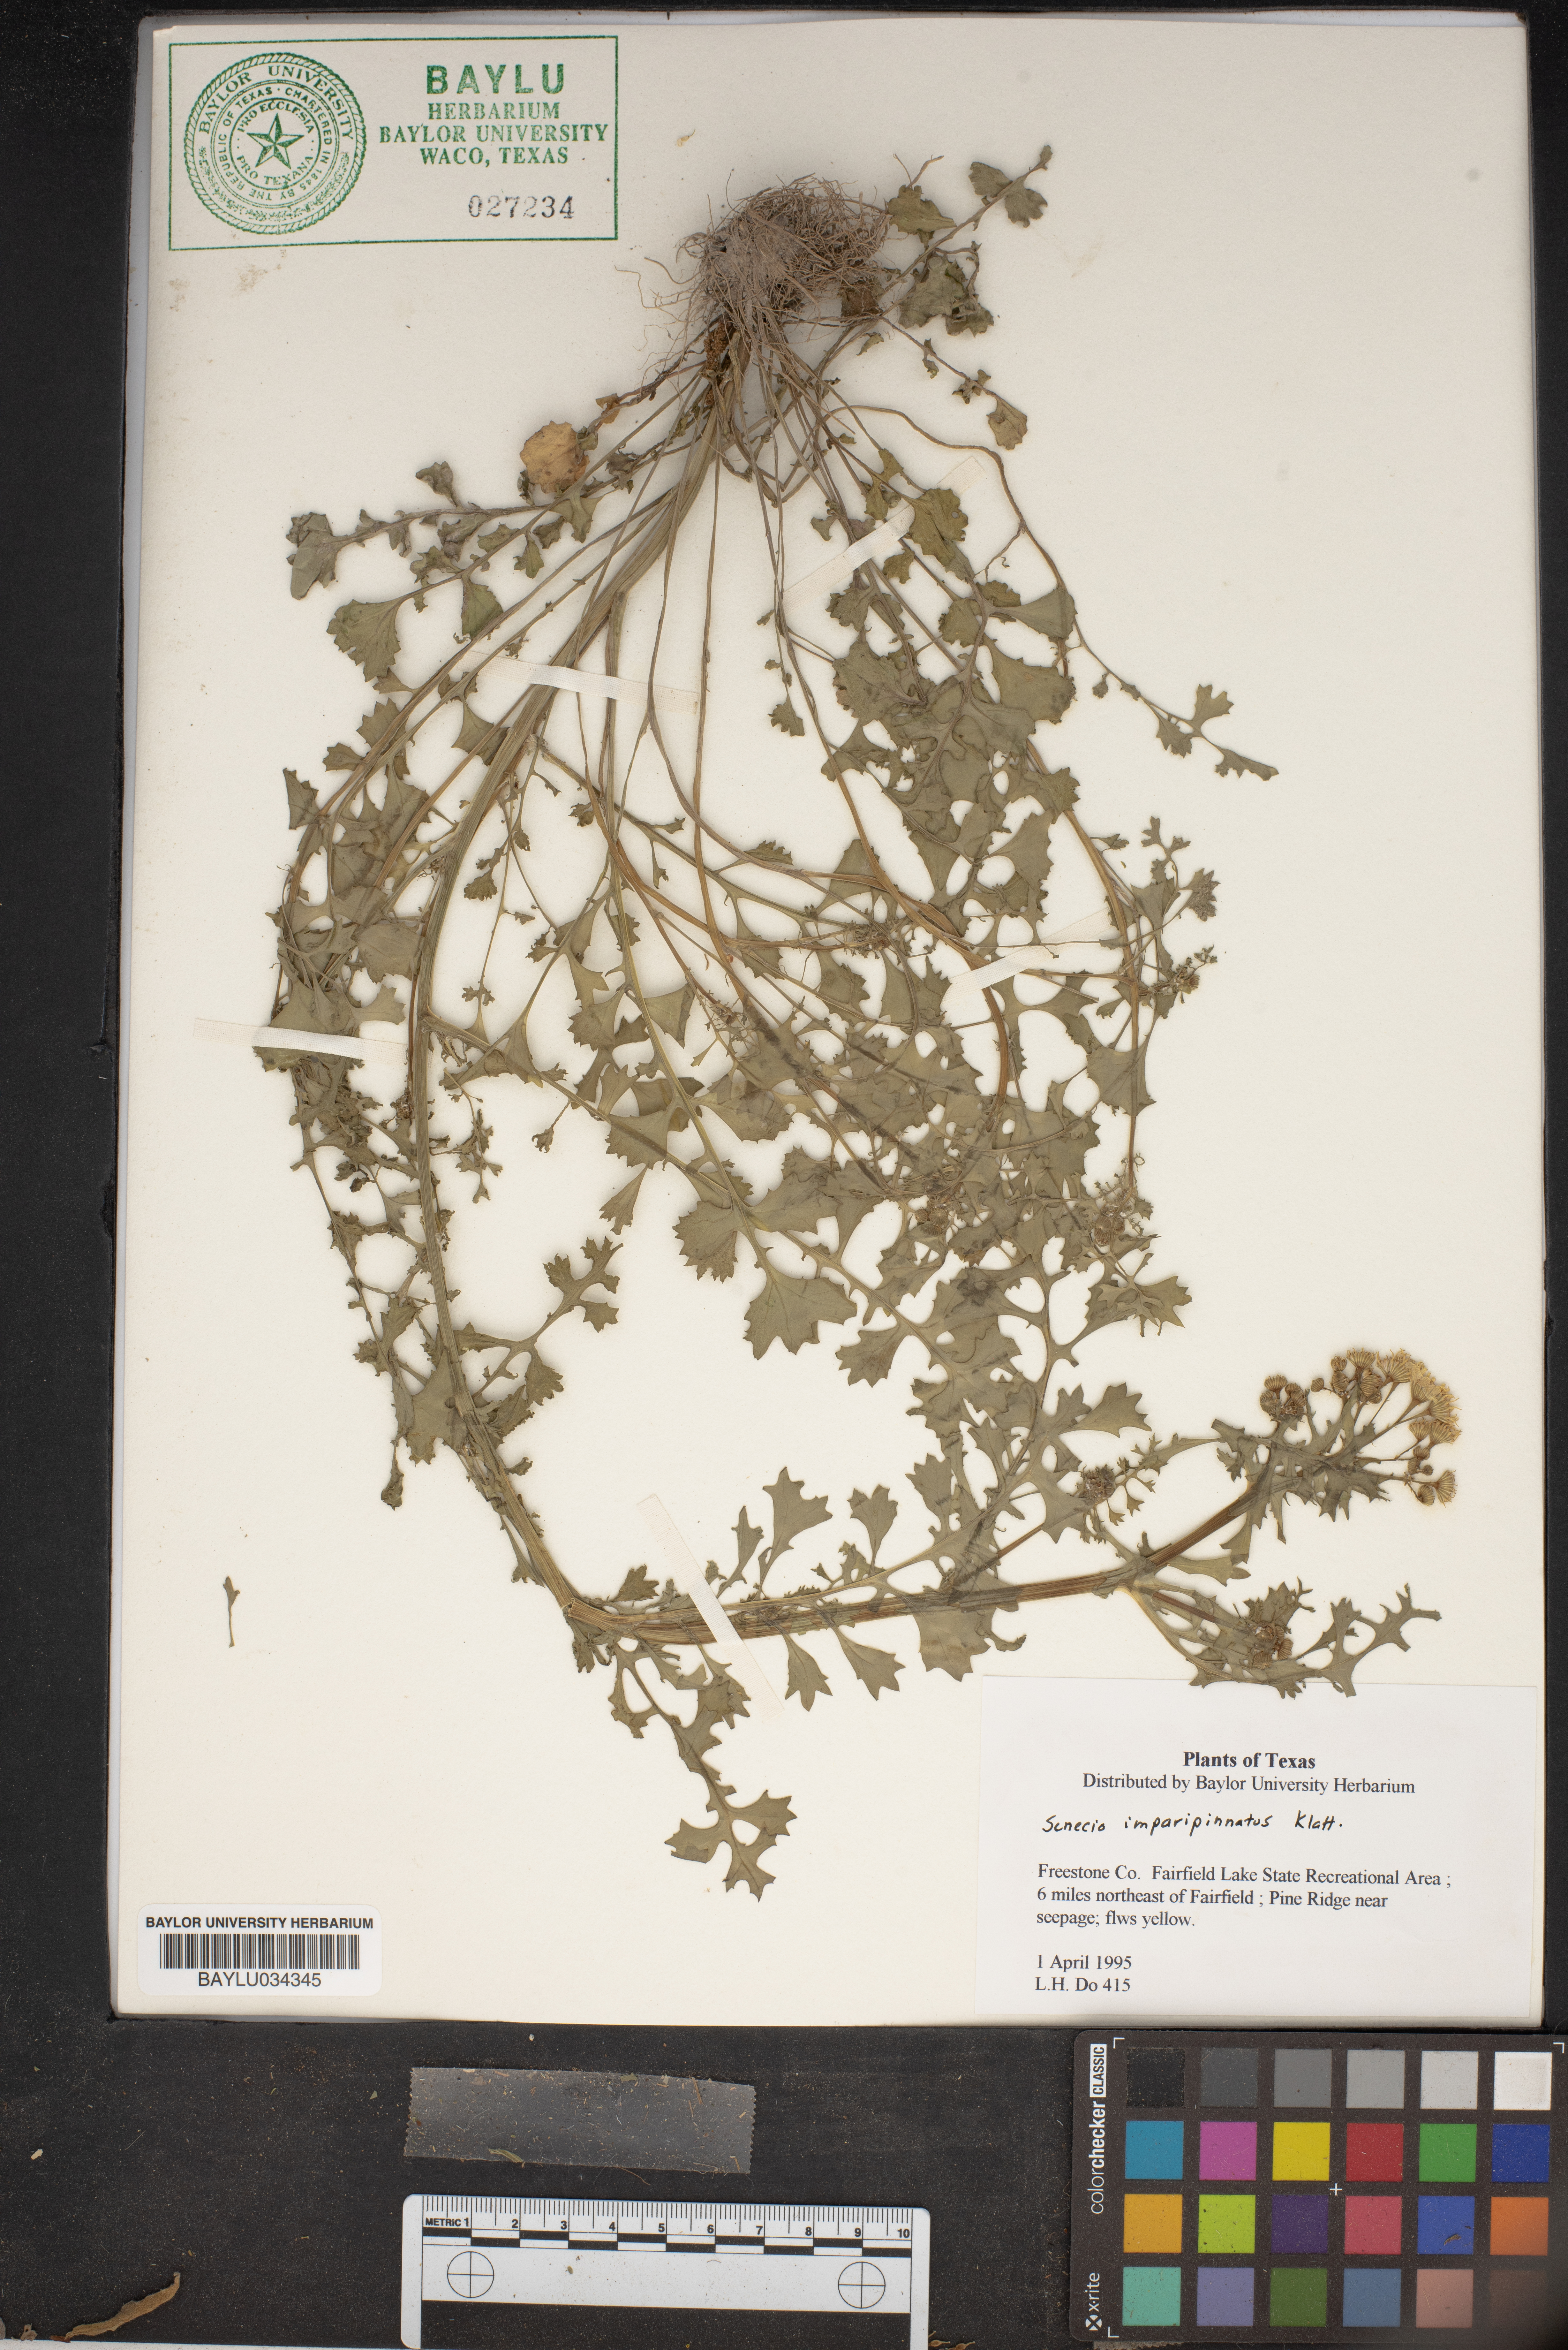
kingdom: Plantae
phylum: Tracheophyta
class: Magnoliopsida
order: Asterales
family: Asteraceae
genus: Packera
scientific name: Packera tampicana
